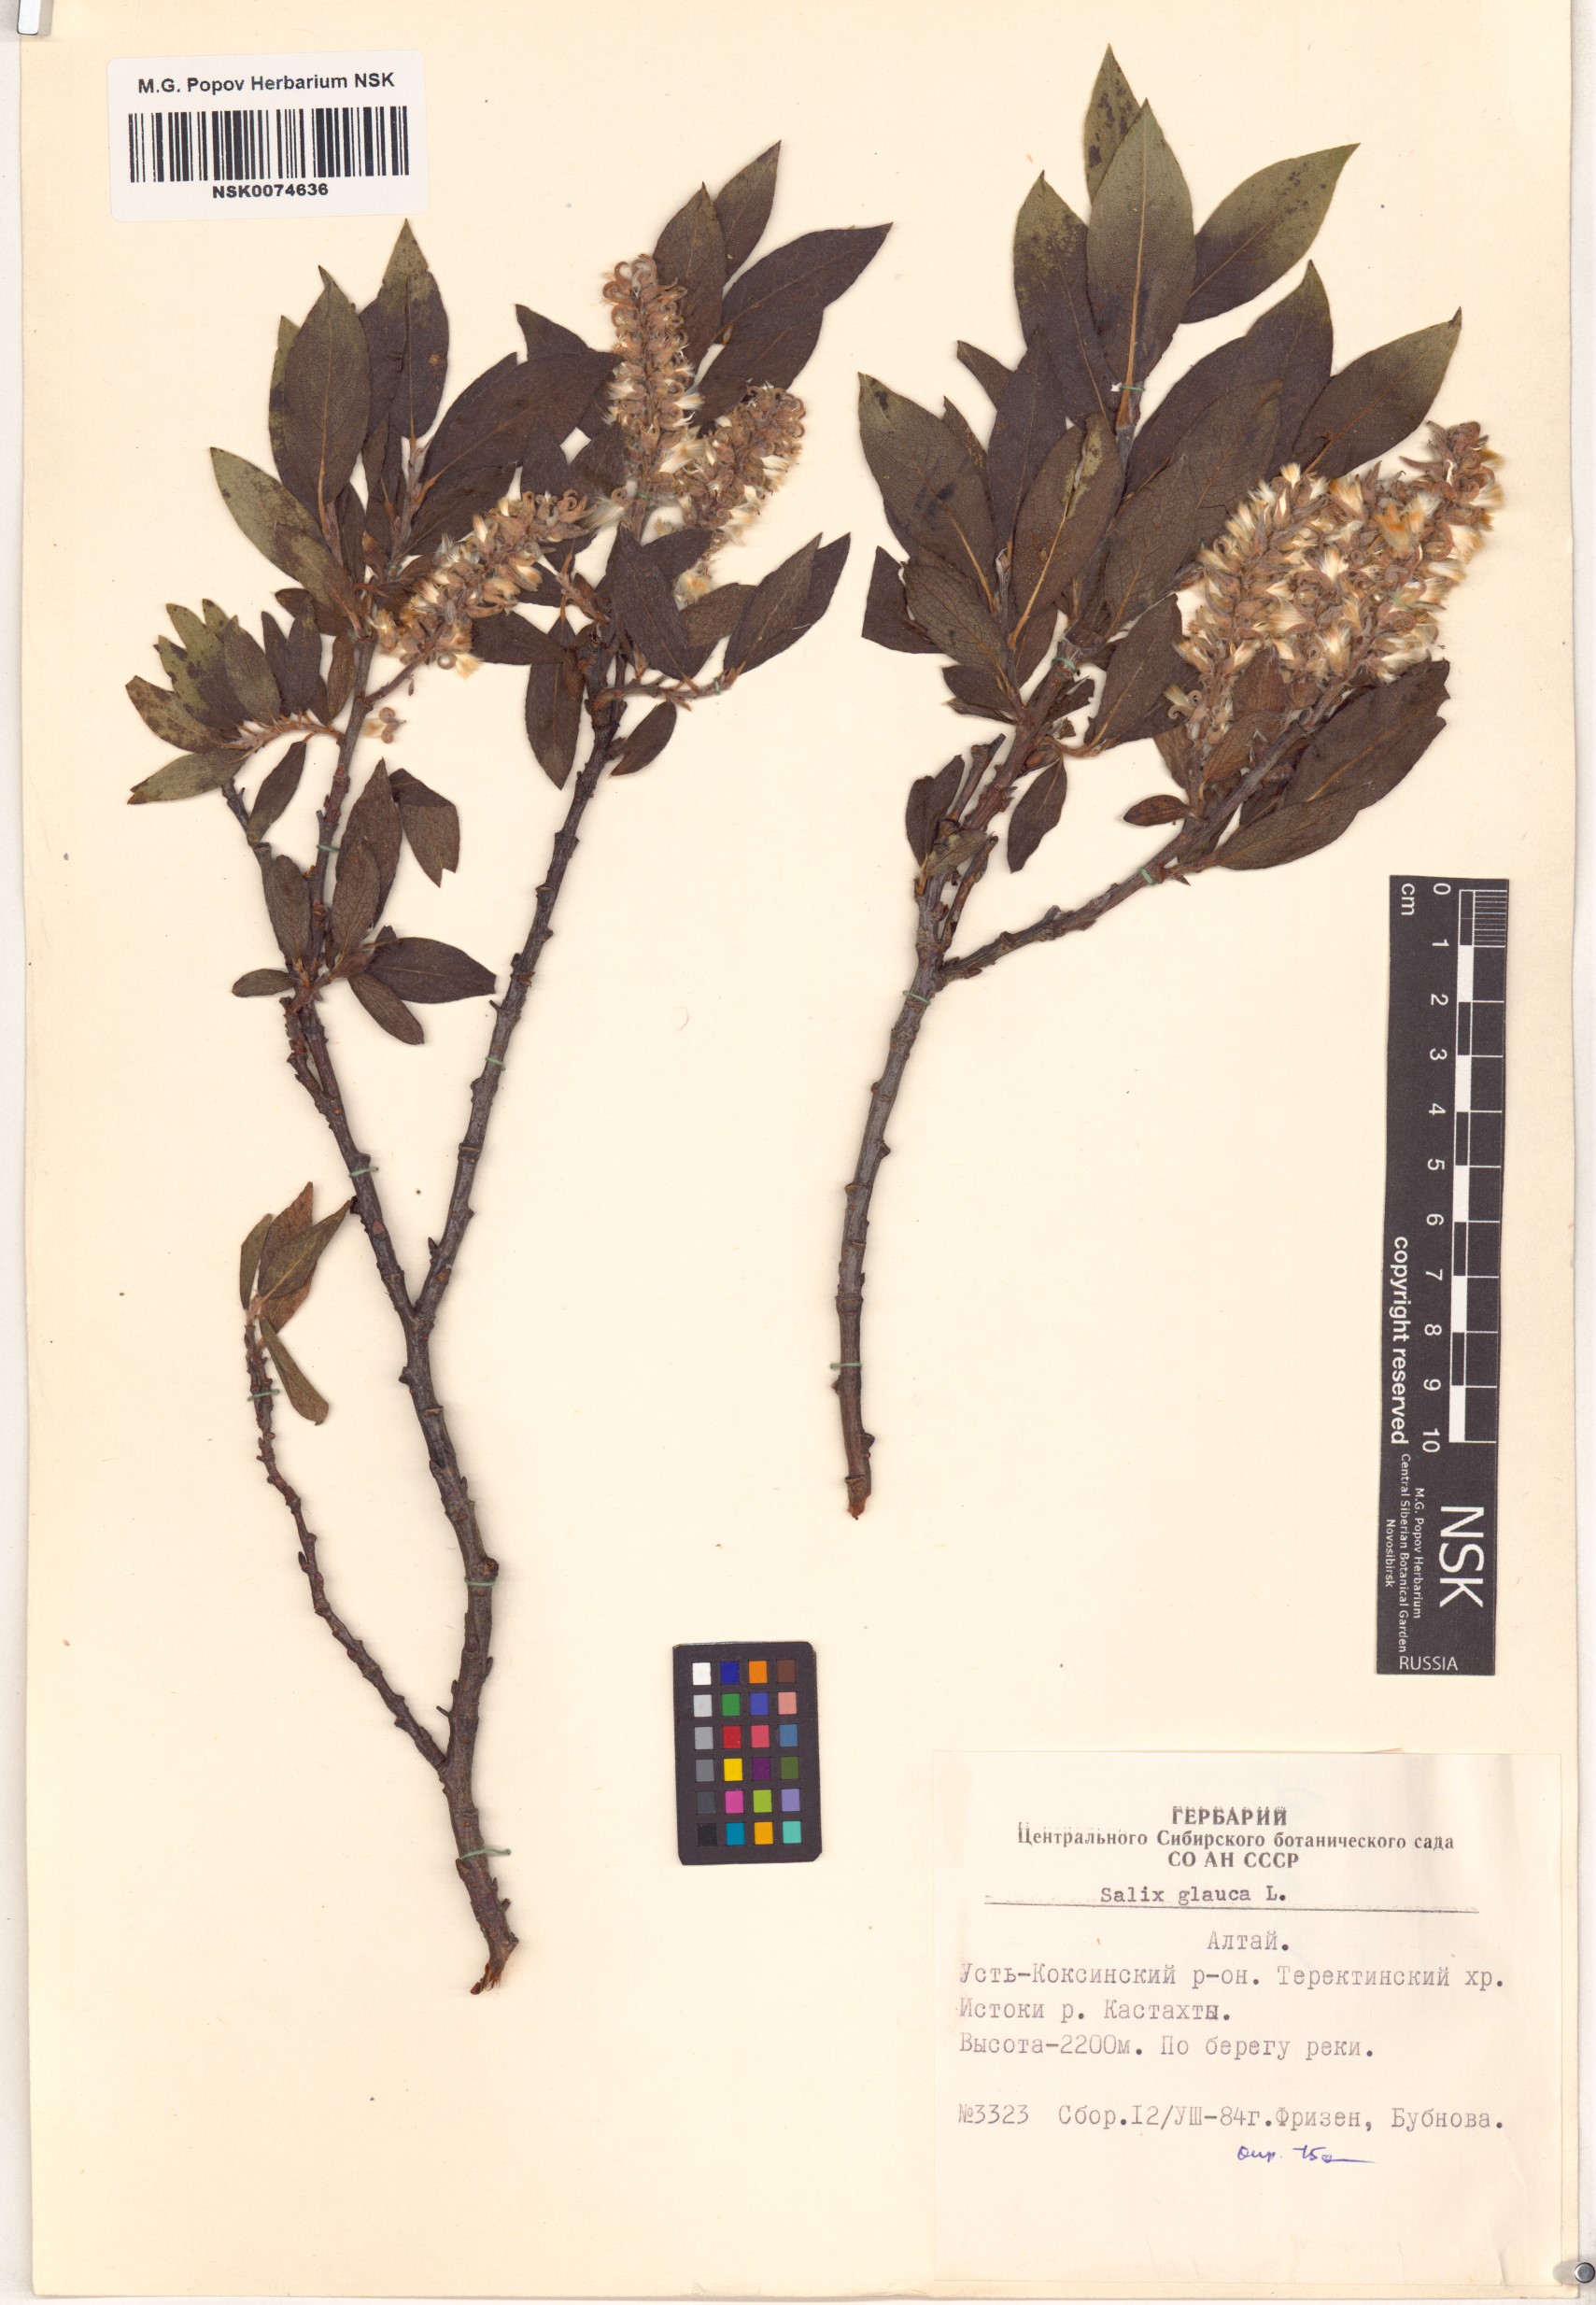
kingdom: Plantae
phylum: Tracheophyta
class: Magnoliopsida
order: Malpighiales
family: Salicaceae
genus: Salix
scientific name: Salix glauca
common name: Glaucous willow
